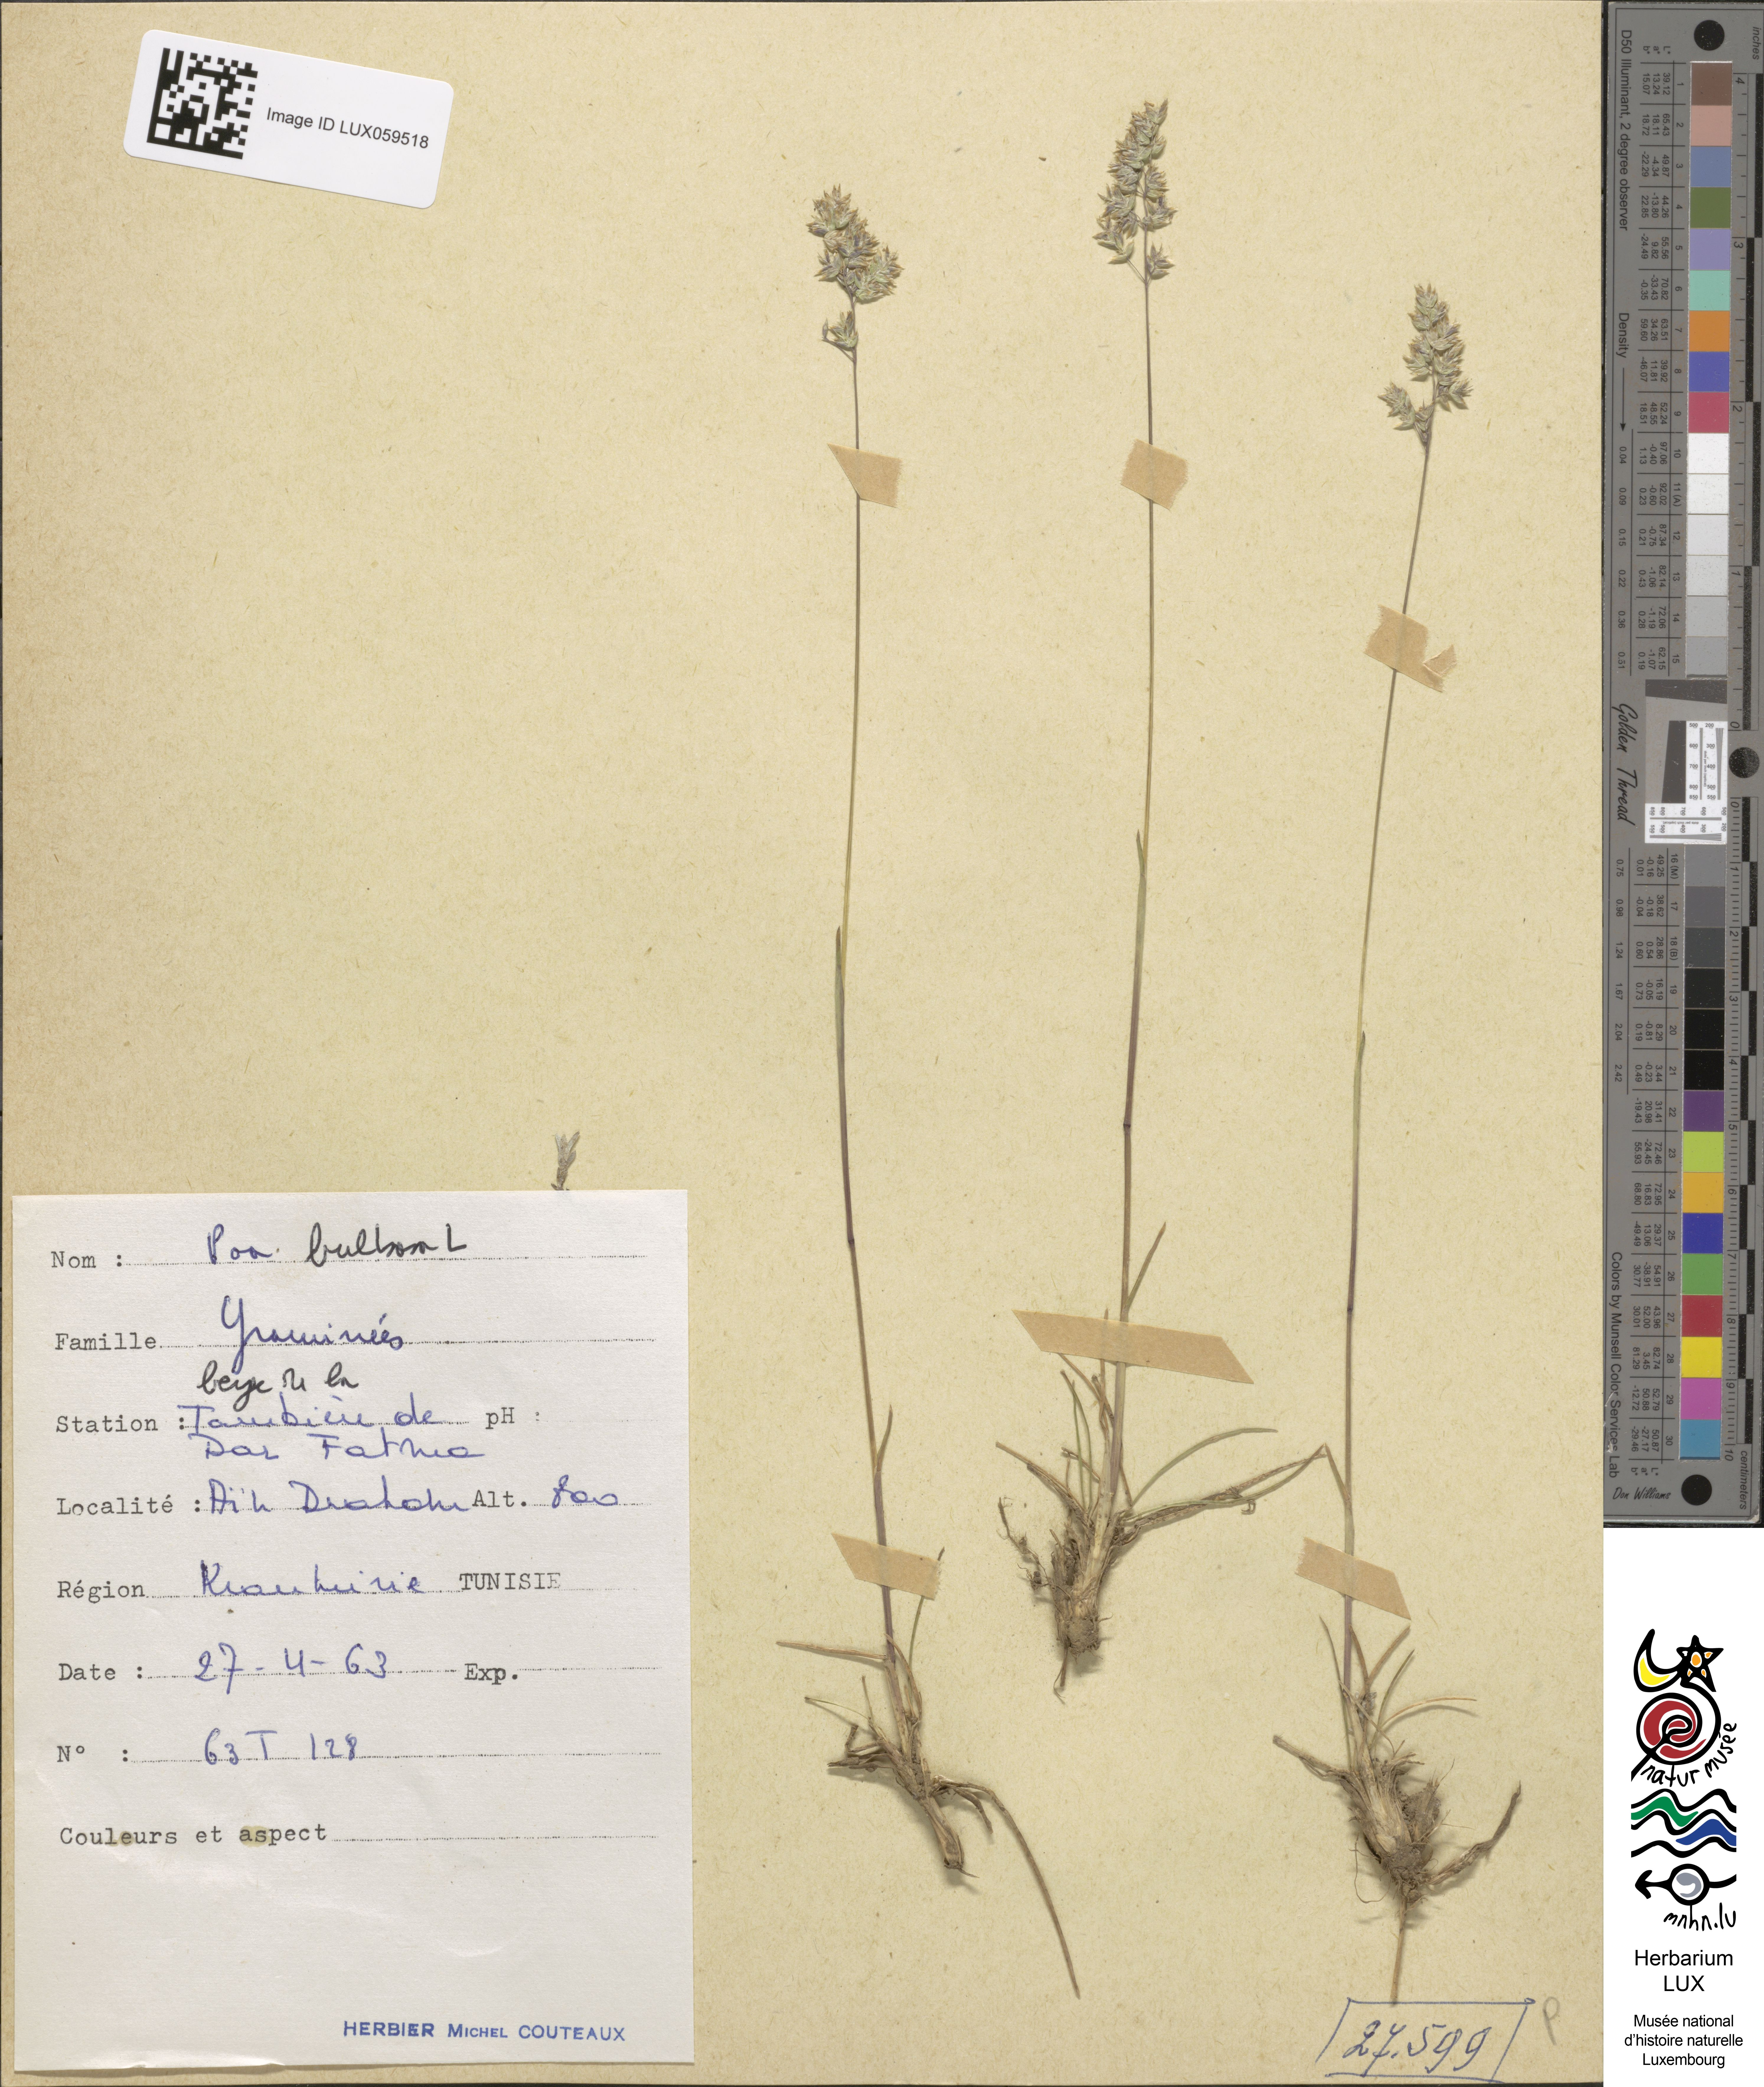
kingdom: Plantae
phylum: Tracheophyta
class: Liliopsida
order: Poales
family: Poaceae
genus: Poa
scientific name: Poa bulbosa
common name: Bulbous bluegrass
